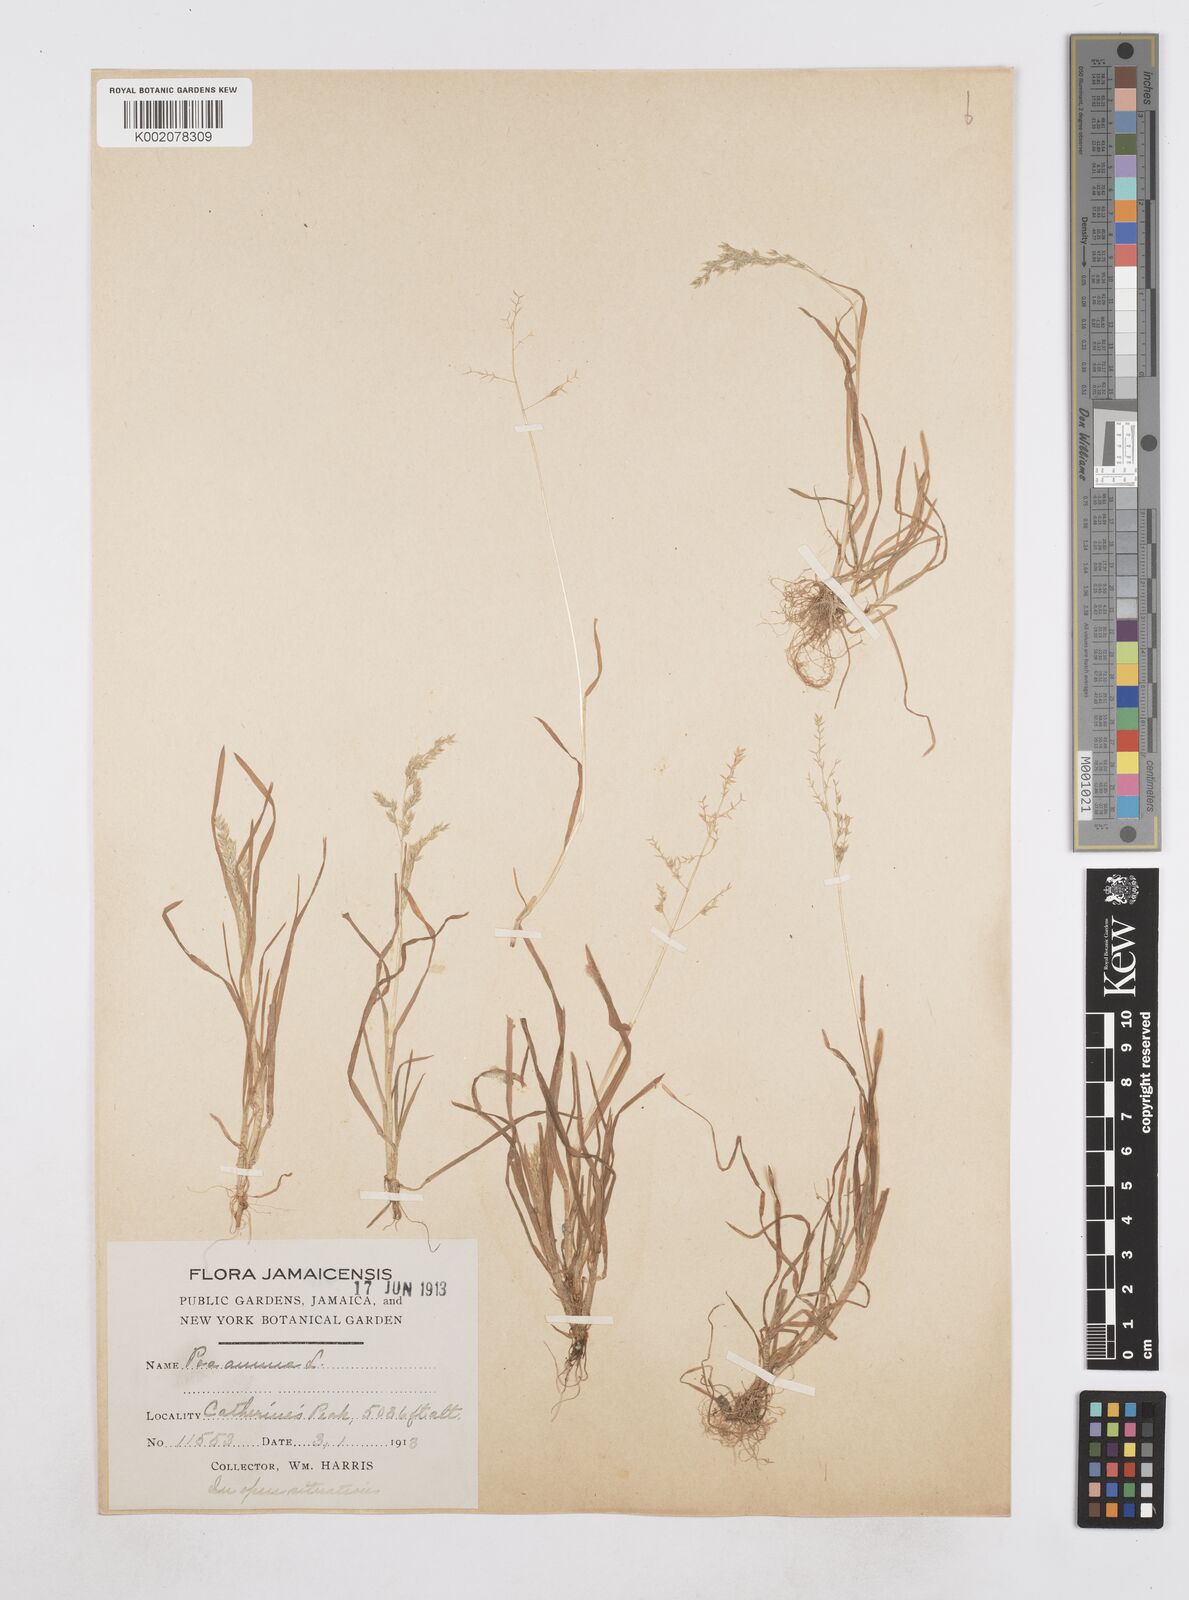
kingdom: Plantae
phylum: Tracheophyta
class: Liliopsida
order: Poales
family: Poaceae
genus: Poa
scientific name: Poa annua
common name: Annual bluegrass
